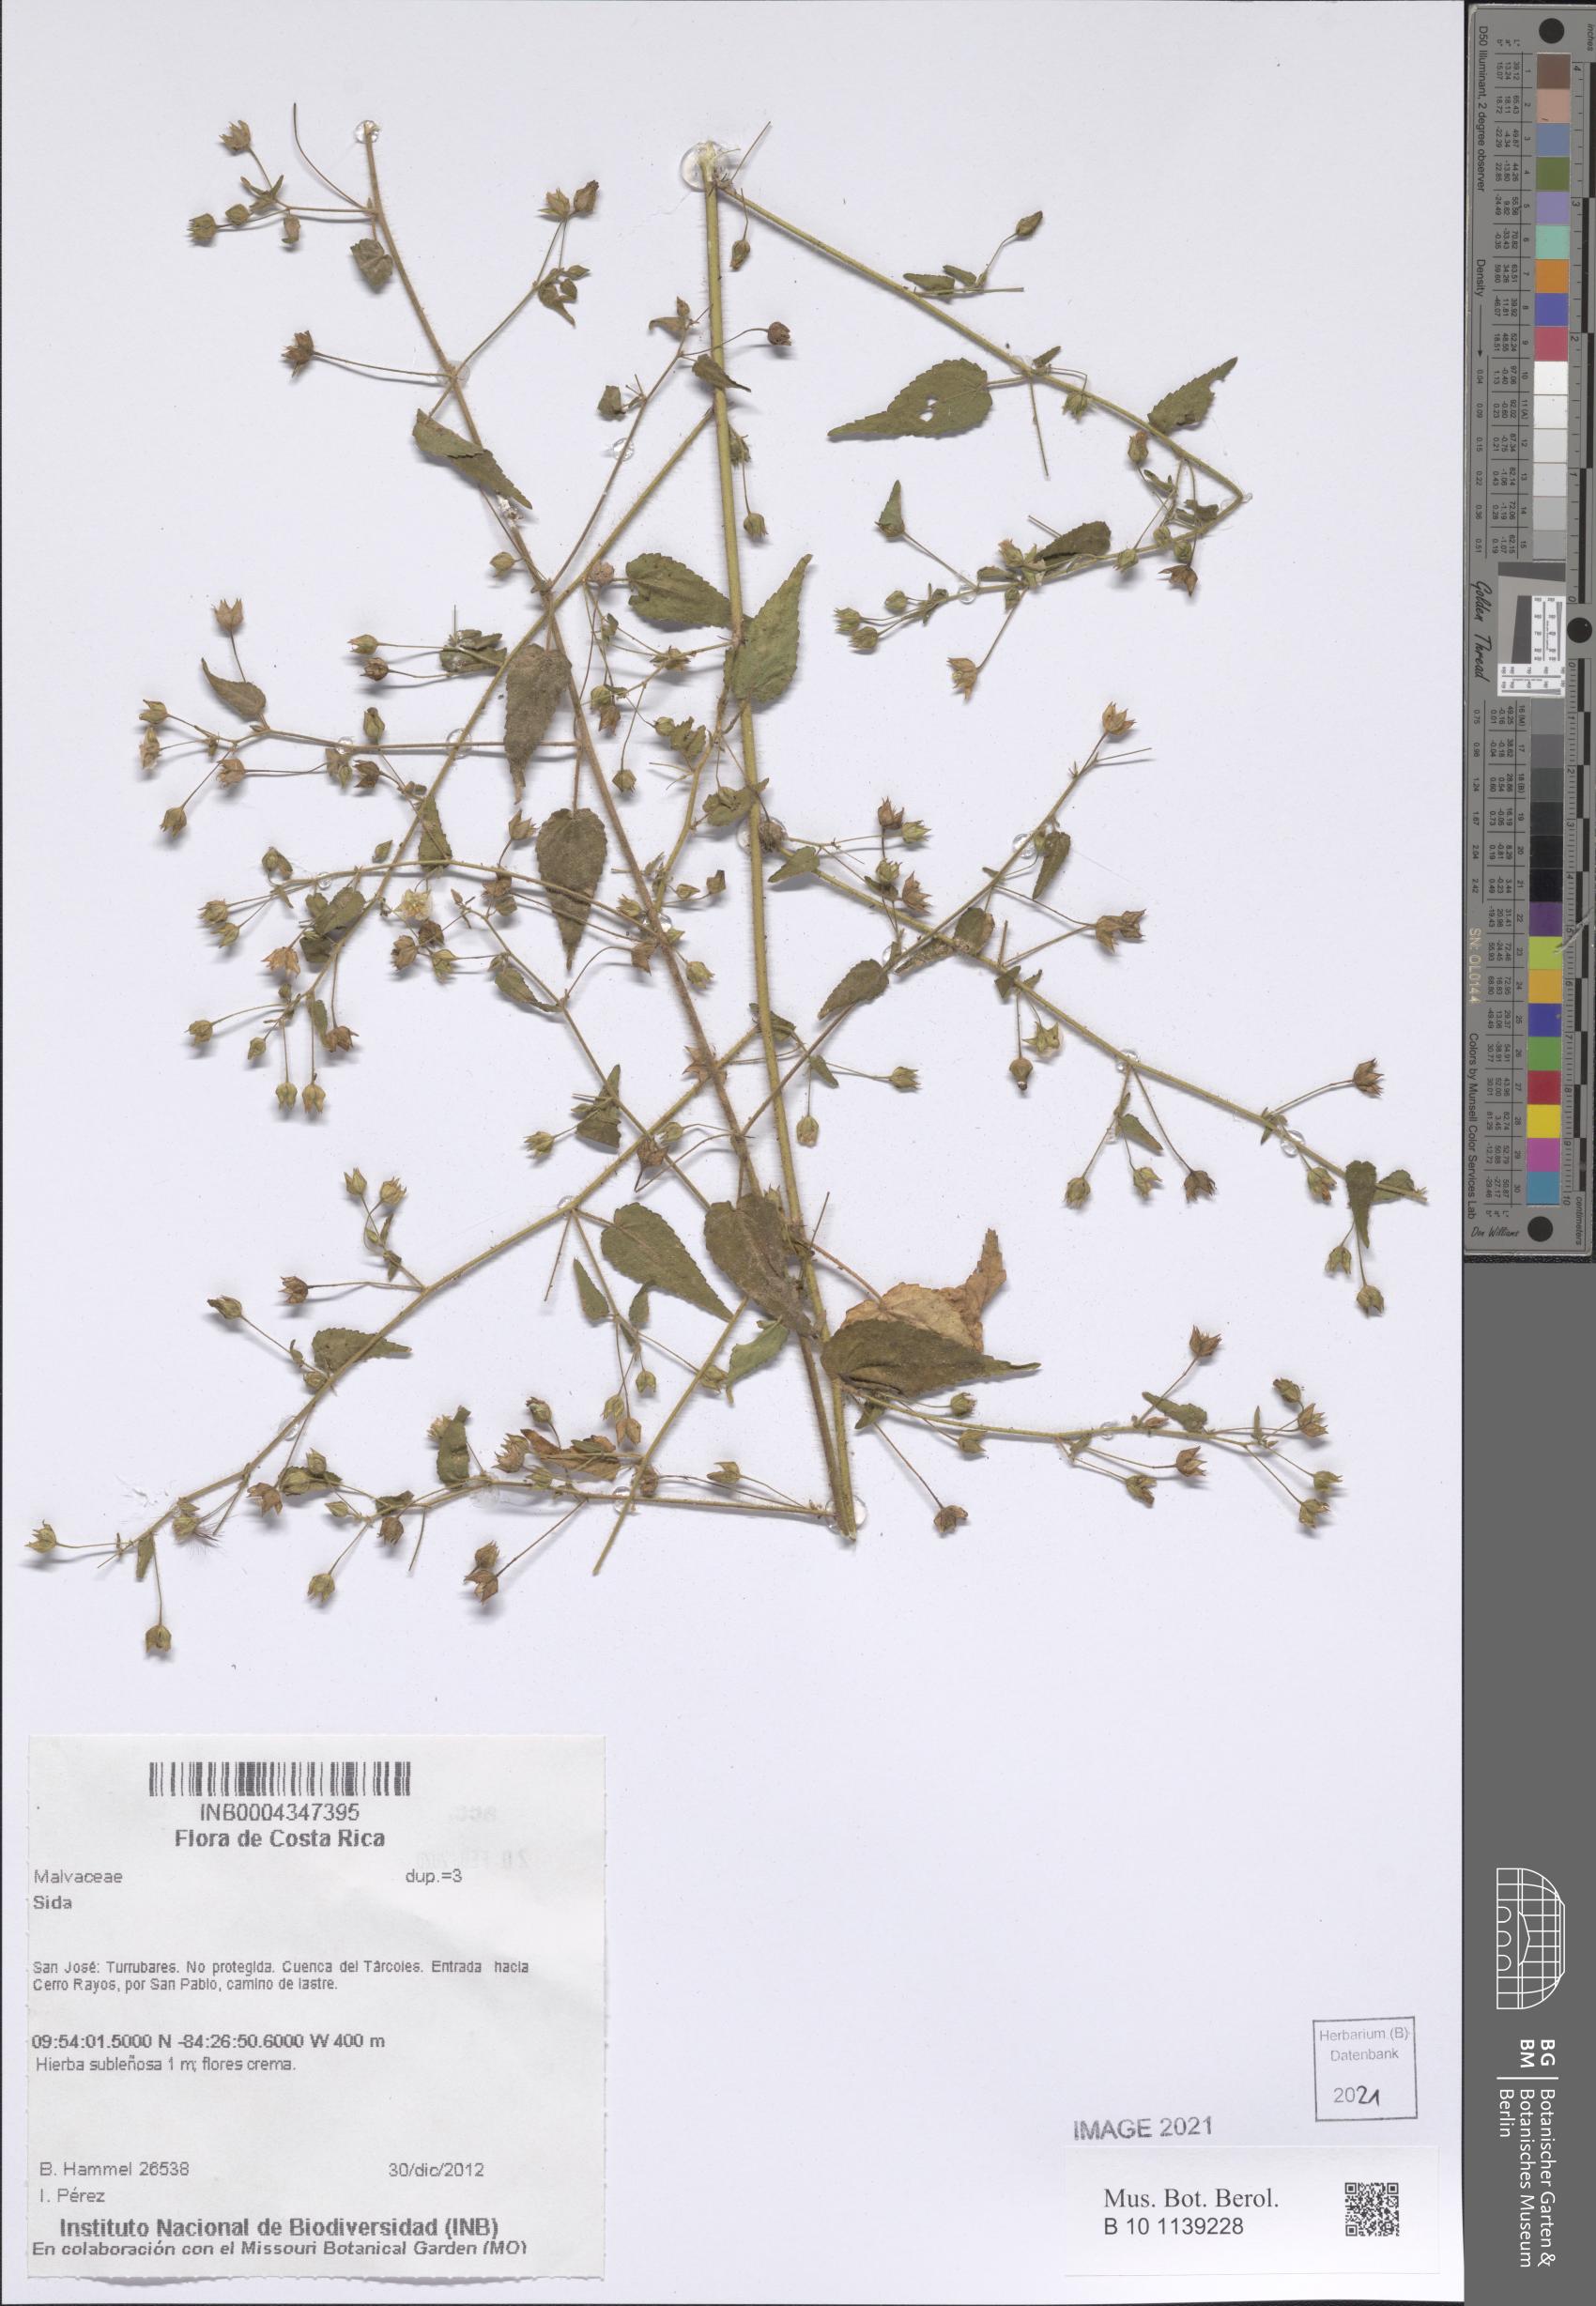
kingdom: Plantae
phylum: Tracheophyta
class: Magnoliopsida
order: Malvales
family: Malvaceae
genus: Sida
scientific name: Sida glabra
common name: Smooth fanpetals
